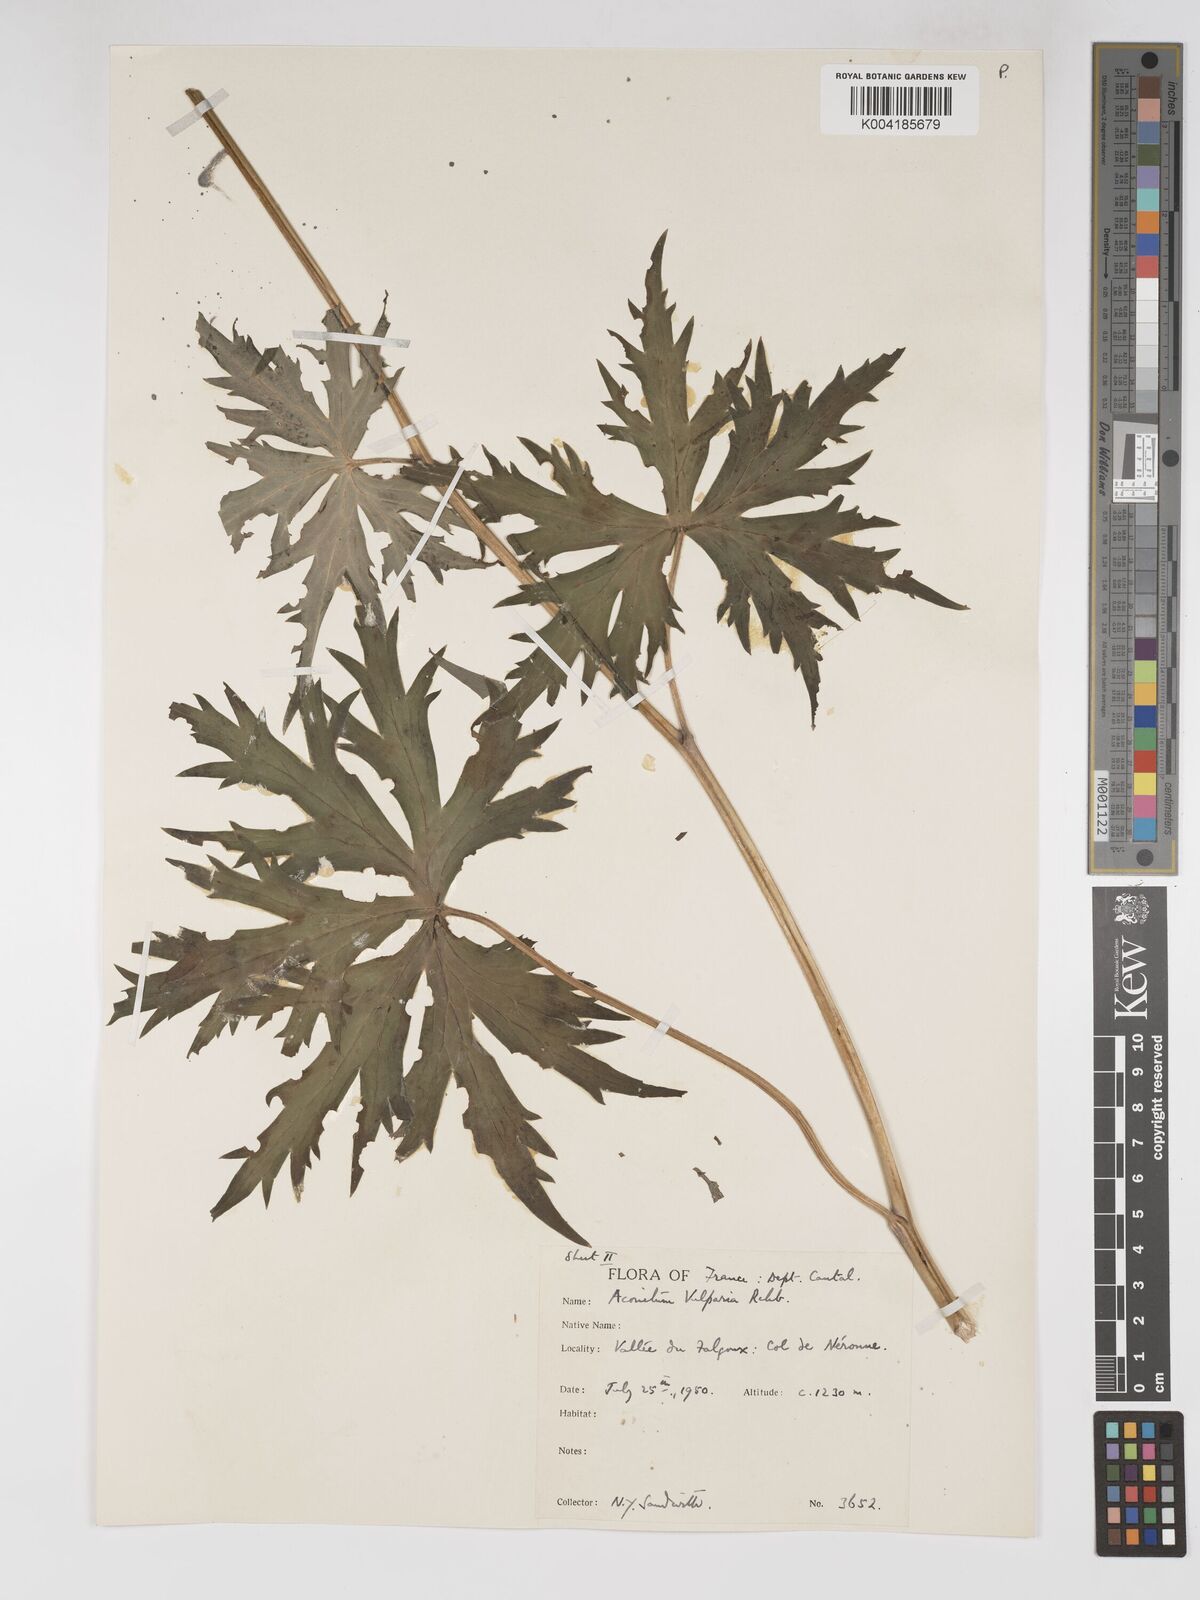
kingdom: Plantae
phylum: Tracheophyta
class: Magnoliopsida
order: Ranunculales
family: Ranunculaceae
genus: Aconitum
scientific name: Aconitum lycoctonum
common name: Wolf's-bane
